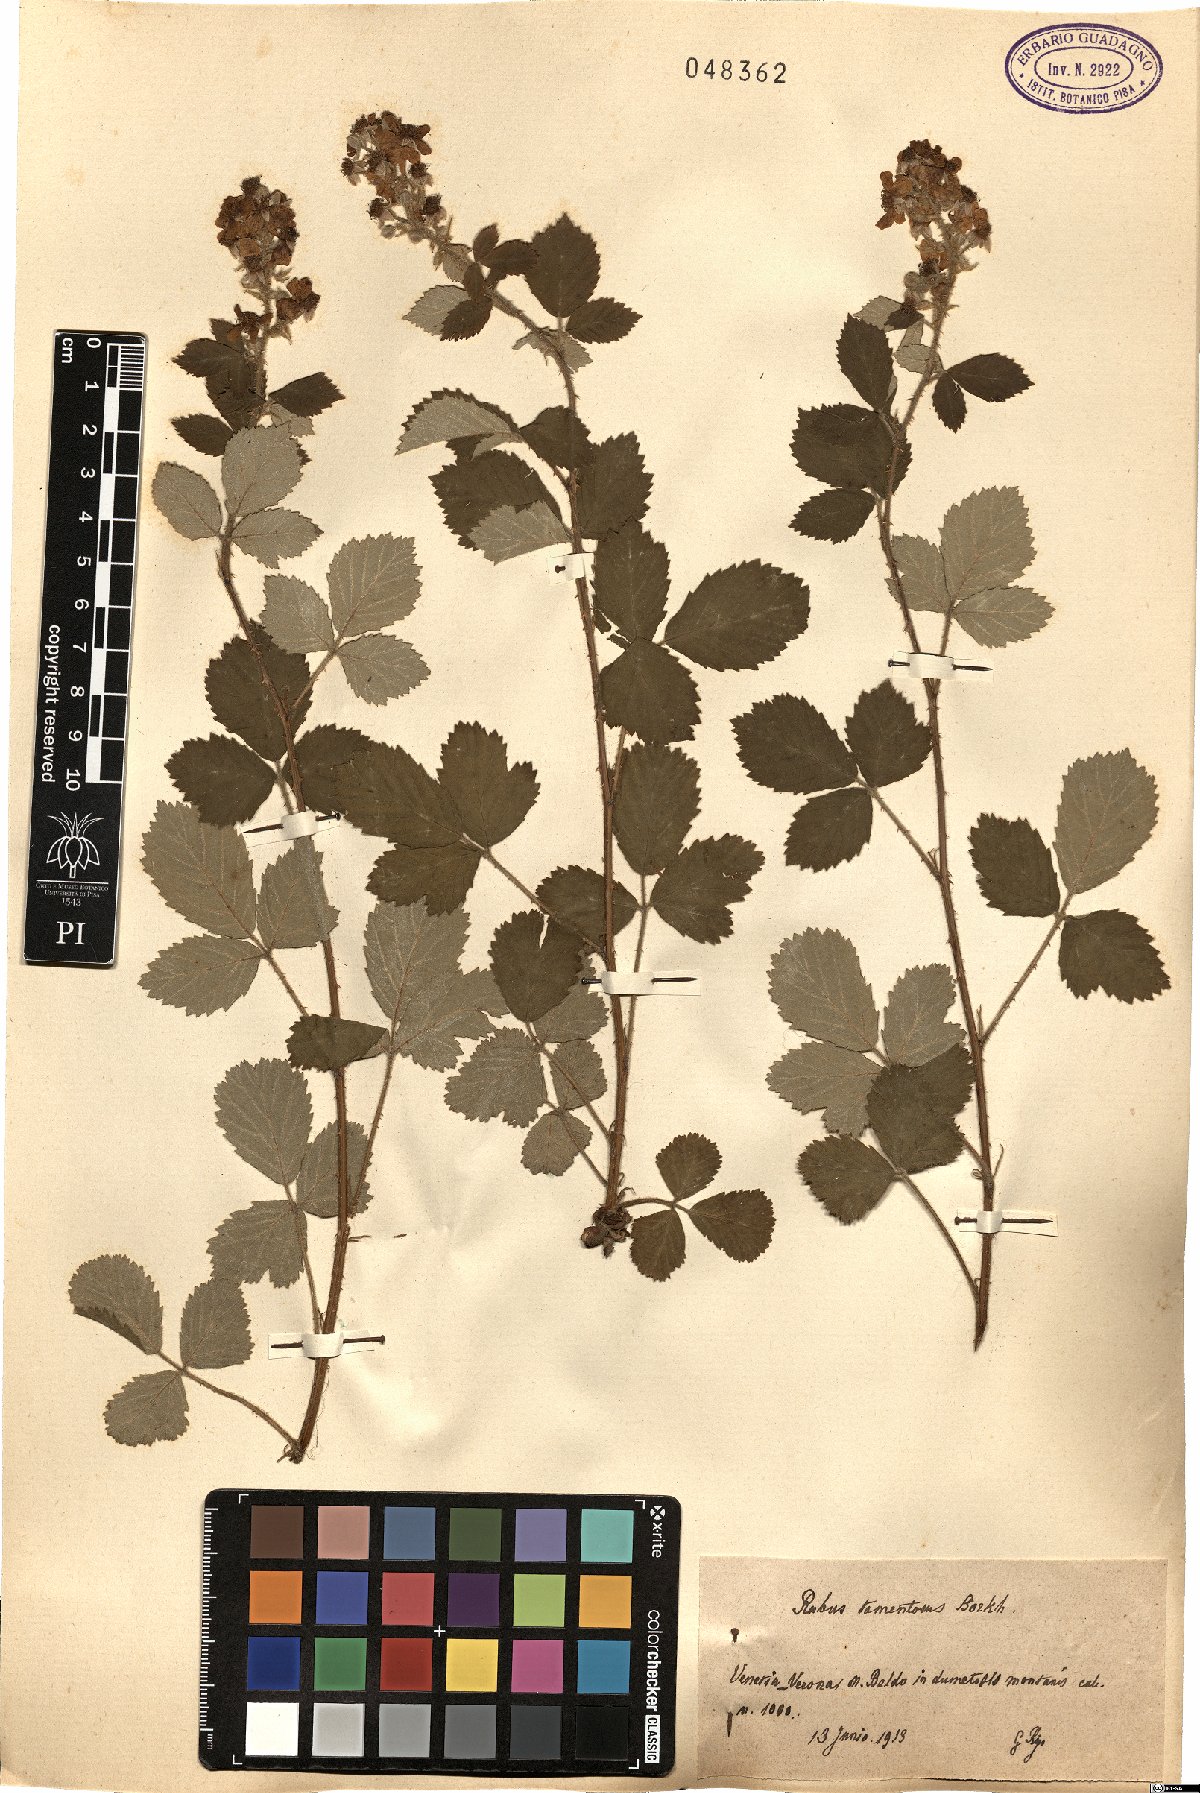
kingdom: Plantae
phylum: Tracheophyta
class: Magnoliopsida
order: Rosales
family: Rosaceae
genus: Rubus
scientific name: Rubus occidentalis
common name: Black raspberry
